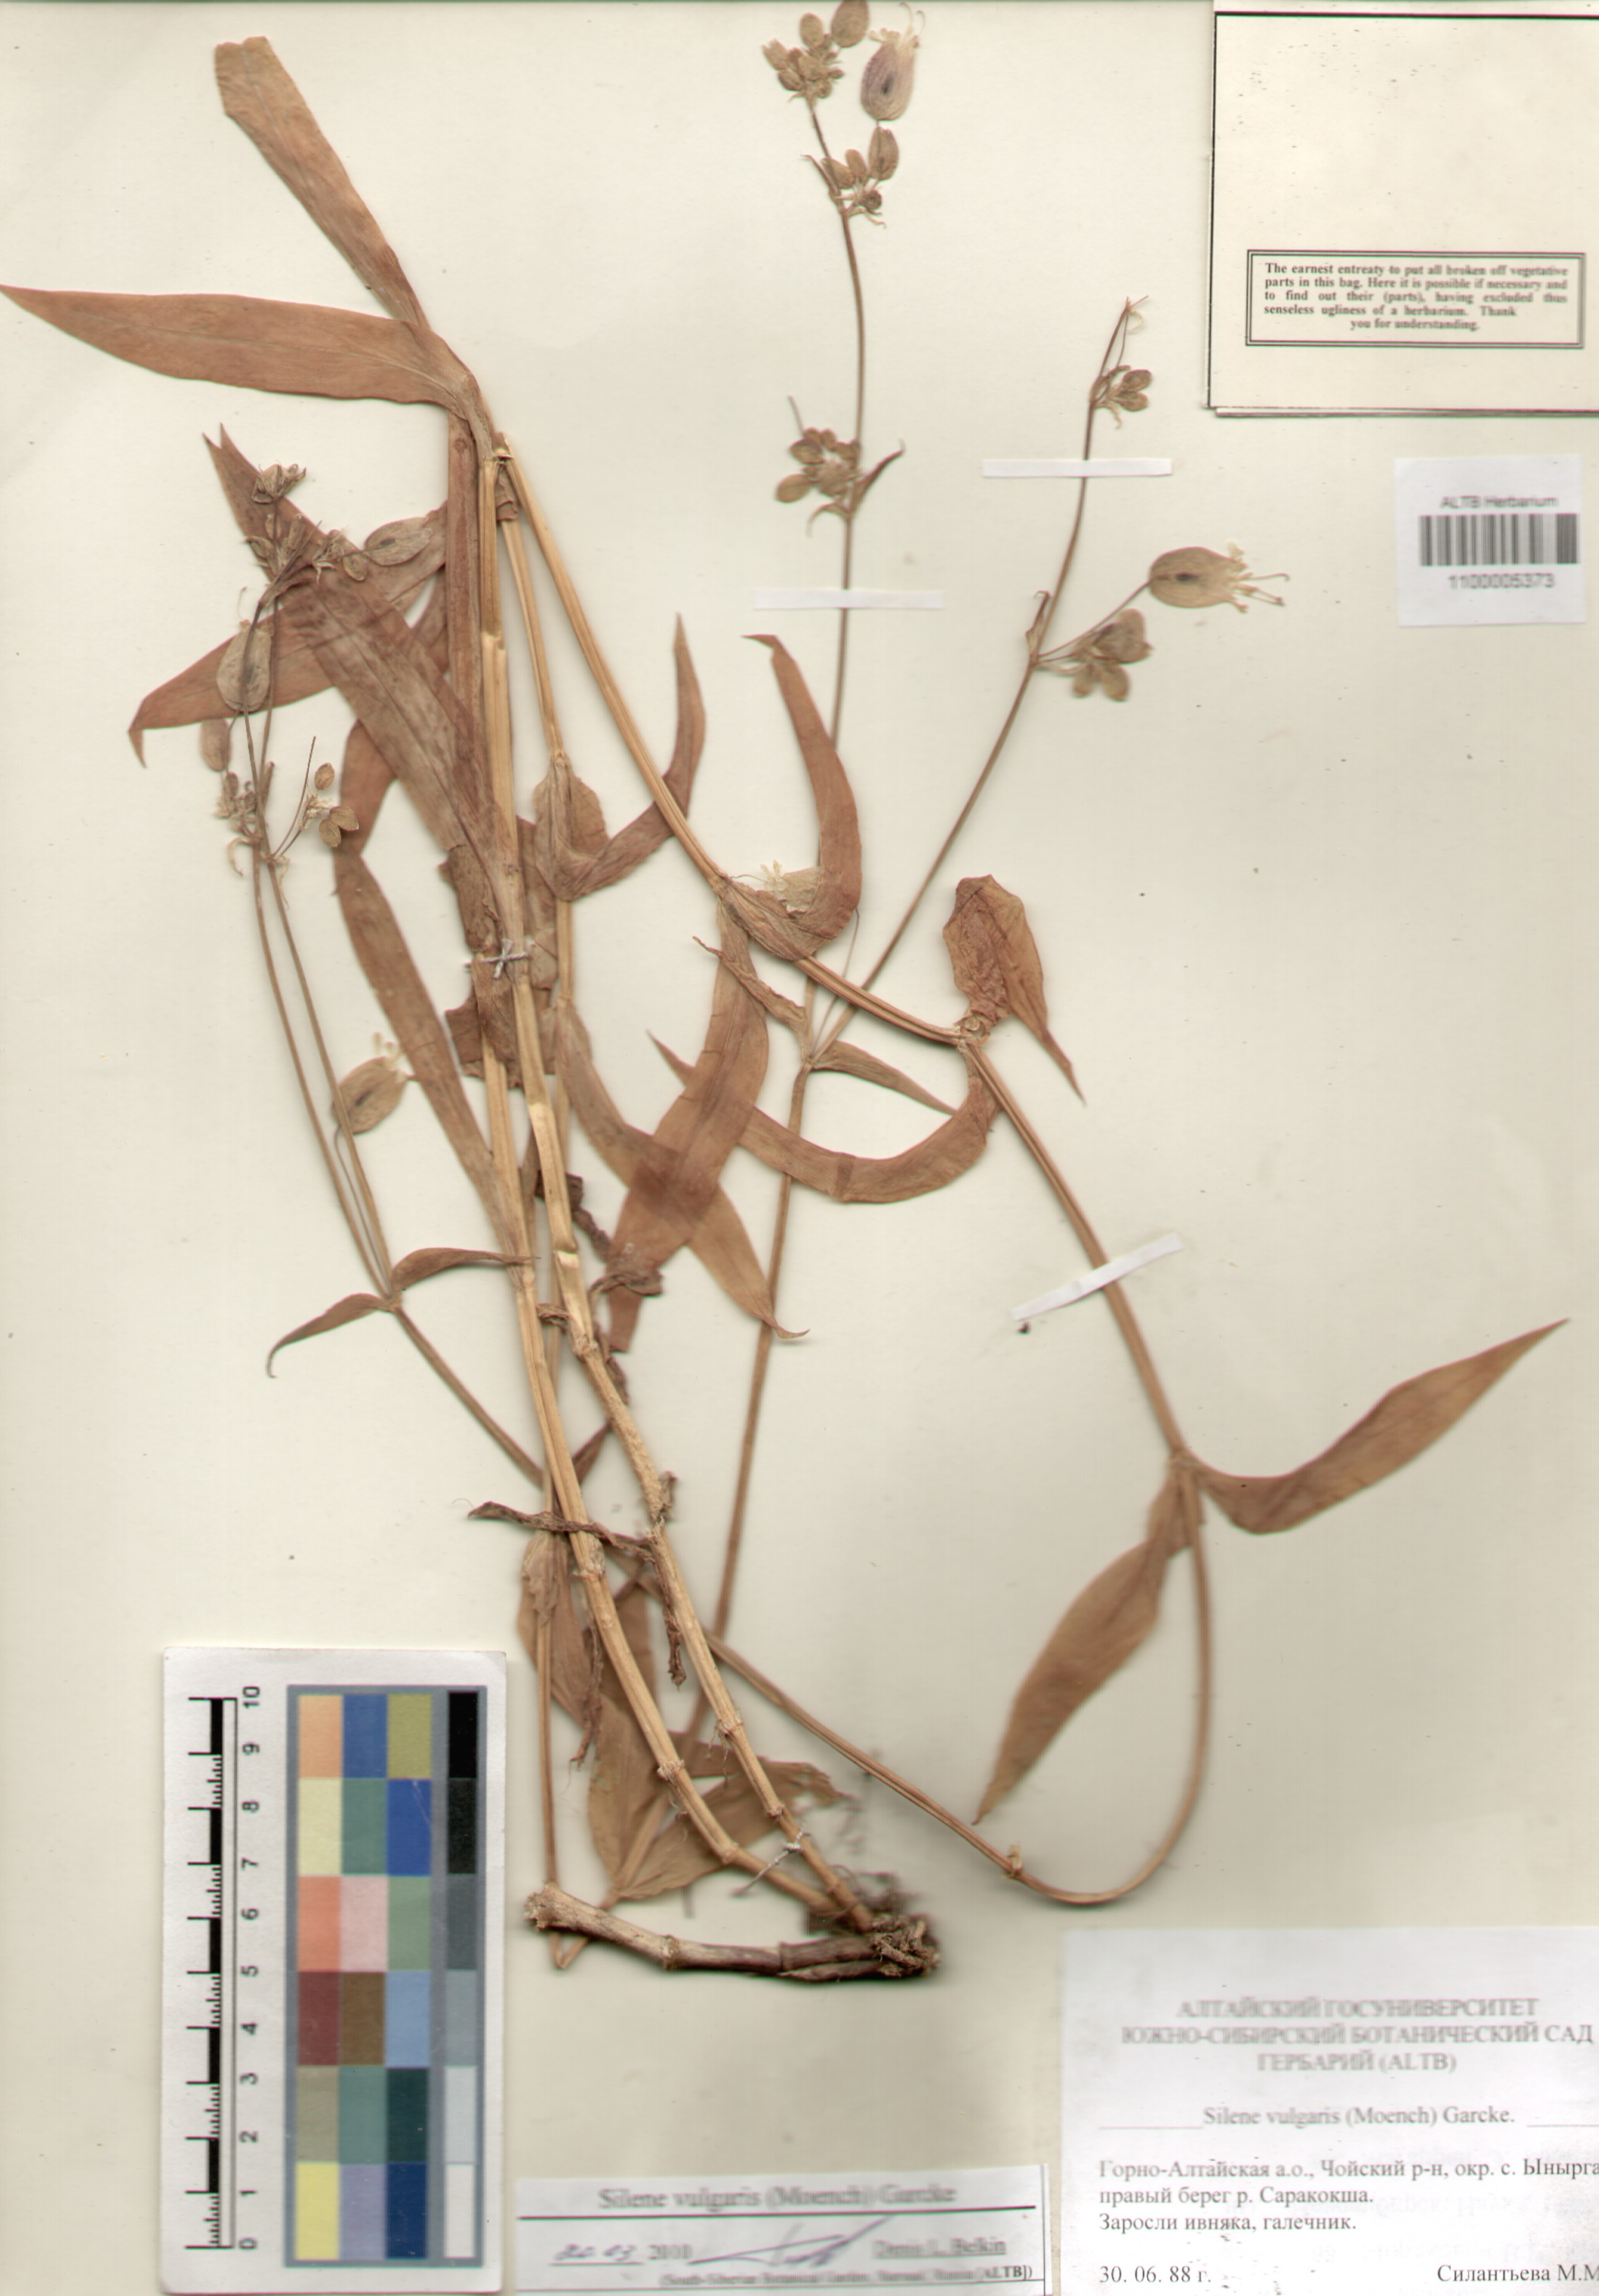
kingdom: Plantae
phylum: Tracheophyta
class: Magnoliopsida
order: Caryophyllales
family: Caryophyllaceae
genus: Silene
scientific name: Silene vulgaris
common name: Bladder campion
